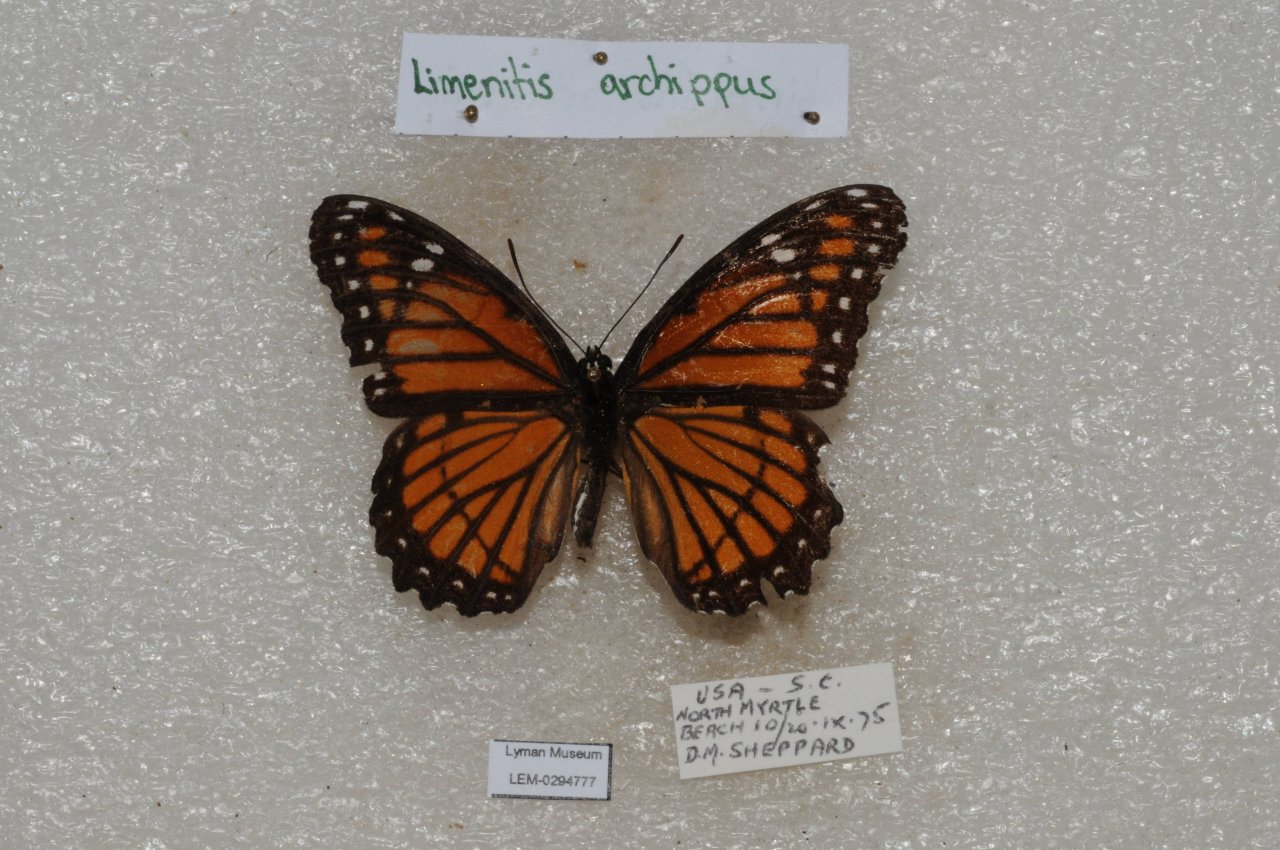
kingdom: Animalia
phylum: Arthropoda
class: Insecta
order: Lepidoptera
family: Nymphalidae
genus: Limenitis
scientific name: Limenitis archippus
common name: Viceroy
